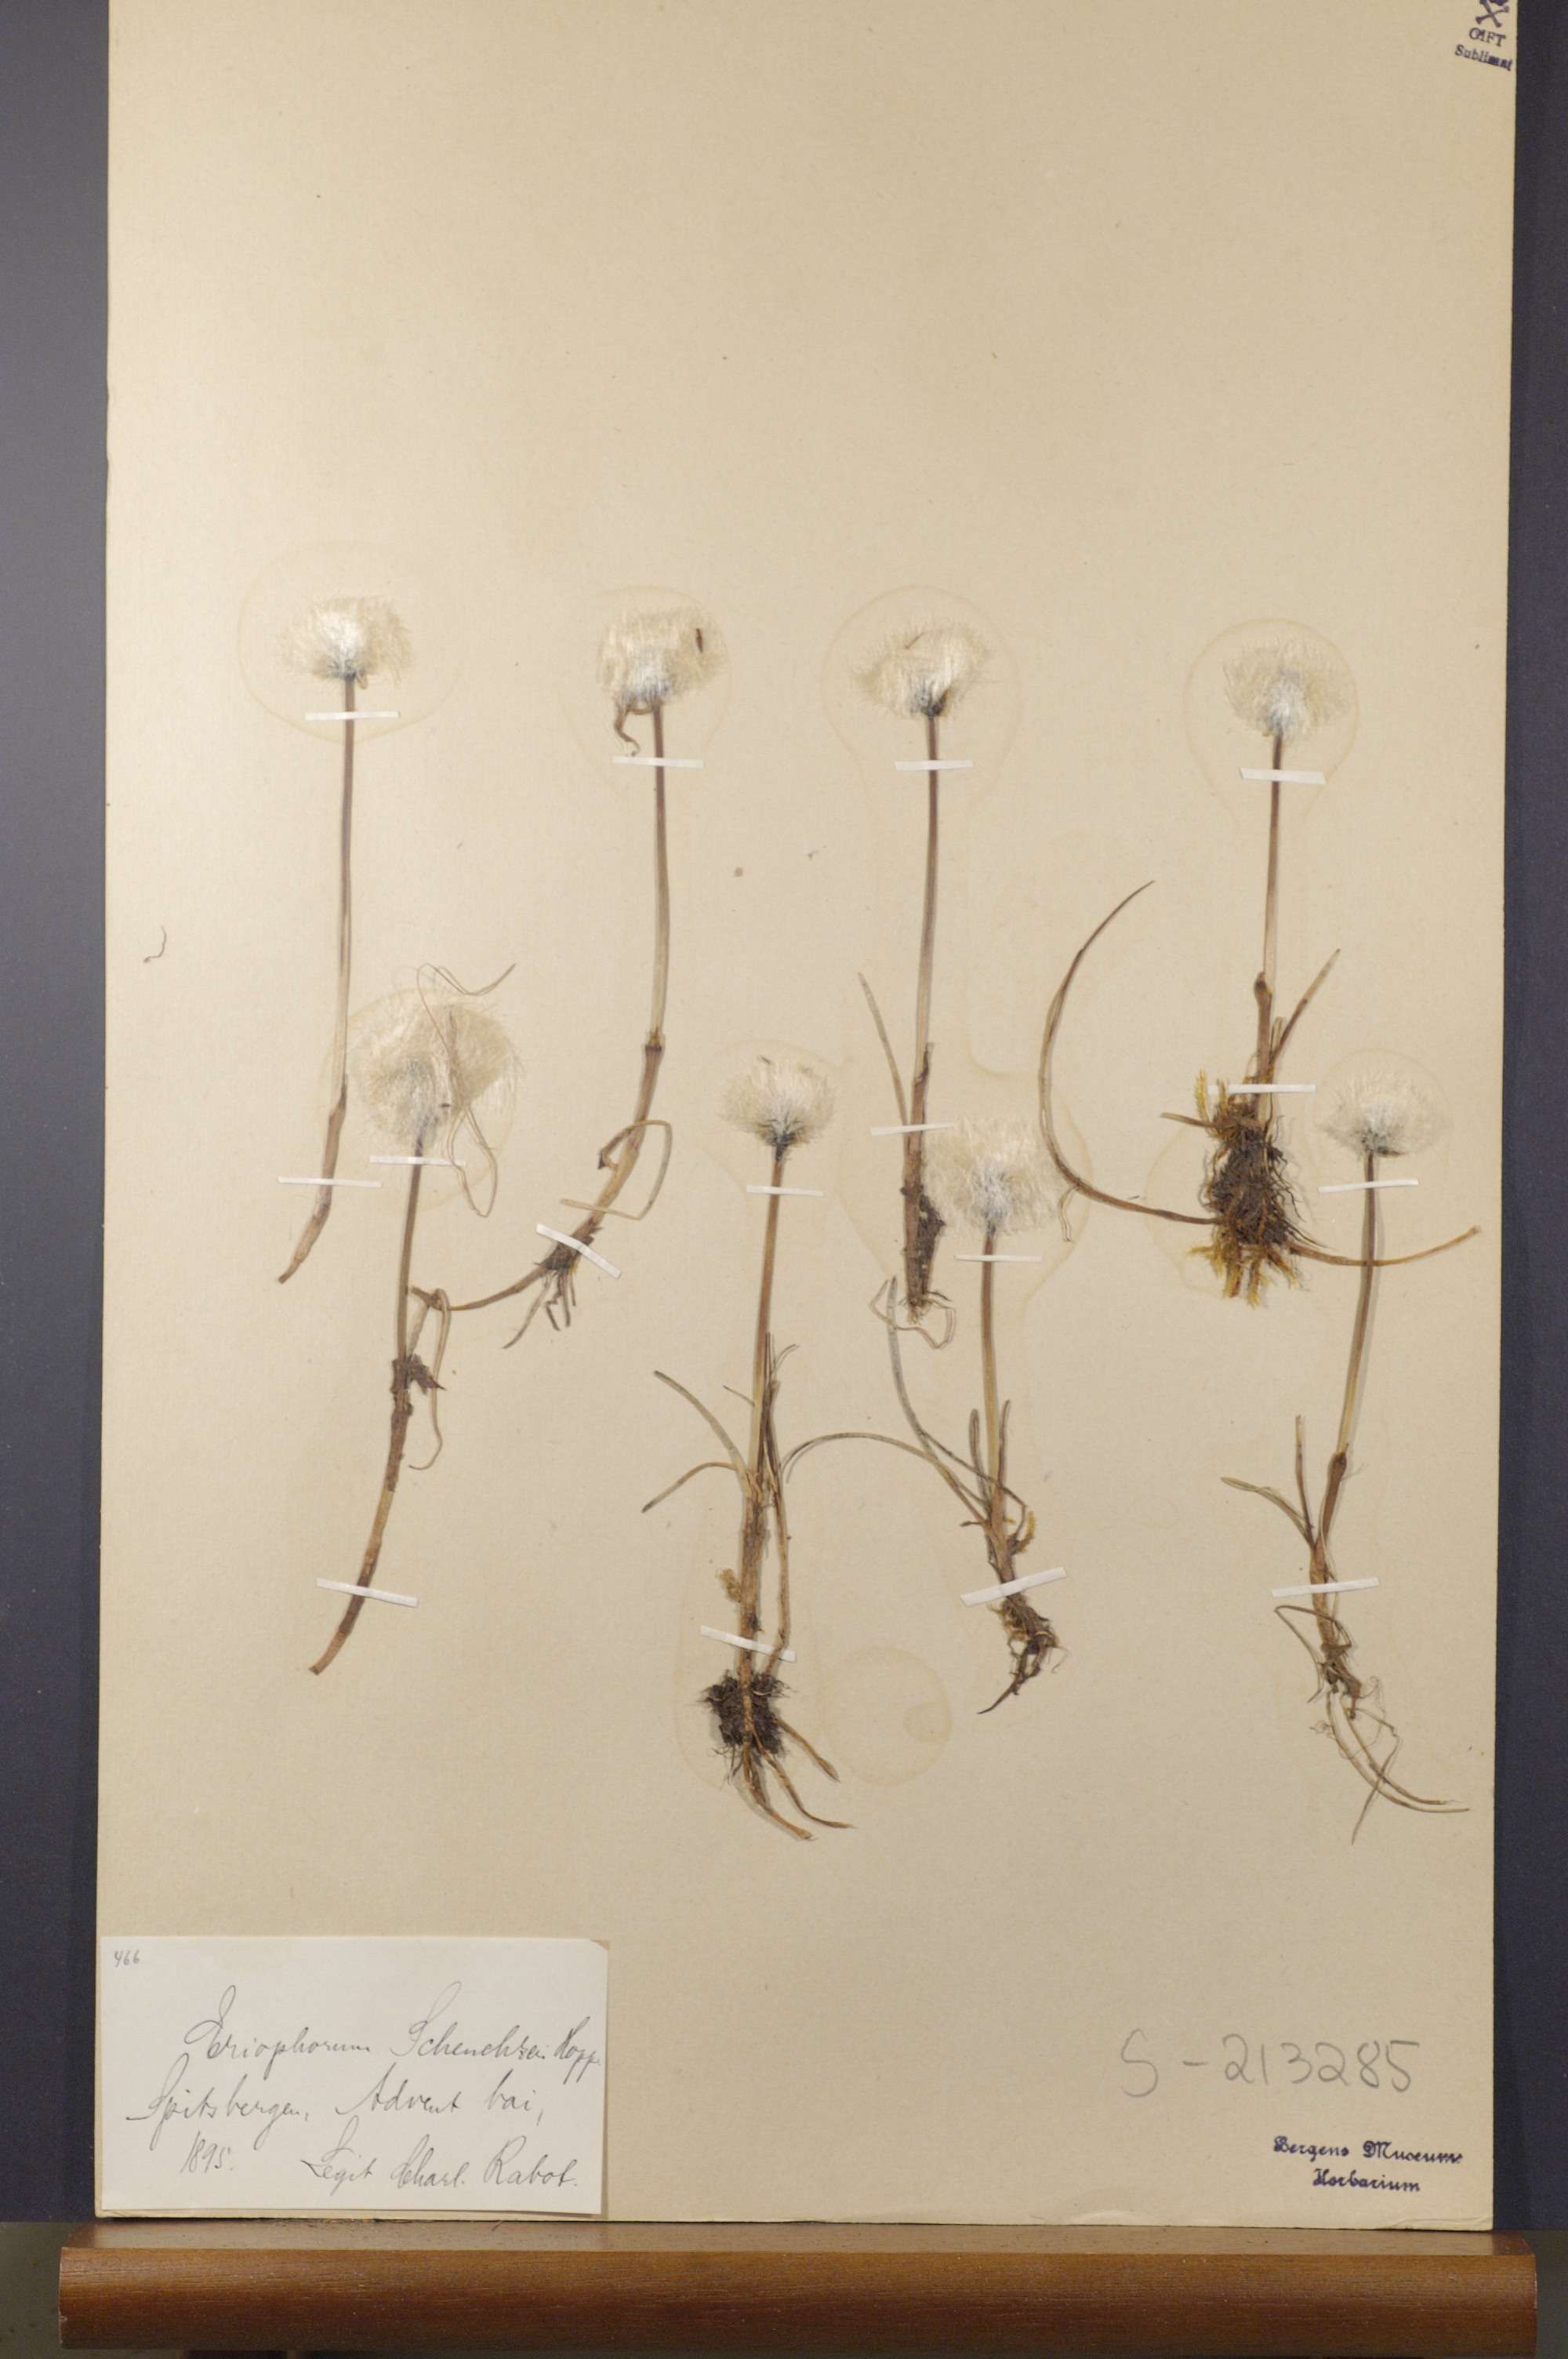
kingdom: Plantae
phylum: Tracheophyta
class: Liliopsida
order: Poales
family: Cyperaceae
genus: Eriophorum
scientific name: Eriophorum scheuchzeri
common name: Scheuchzer's cottongrass
